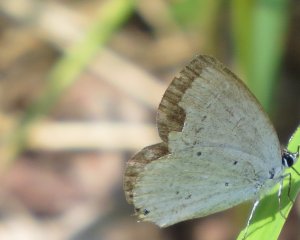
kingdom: Animalia
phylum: Arthropoda
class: Insecta
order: Lepidoptera
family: Lycaenidae
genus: Elkalyce
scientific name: Elkalyce amyntula
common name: Western Tailed-Blue
